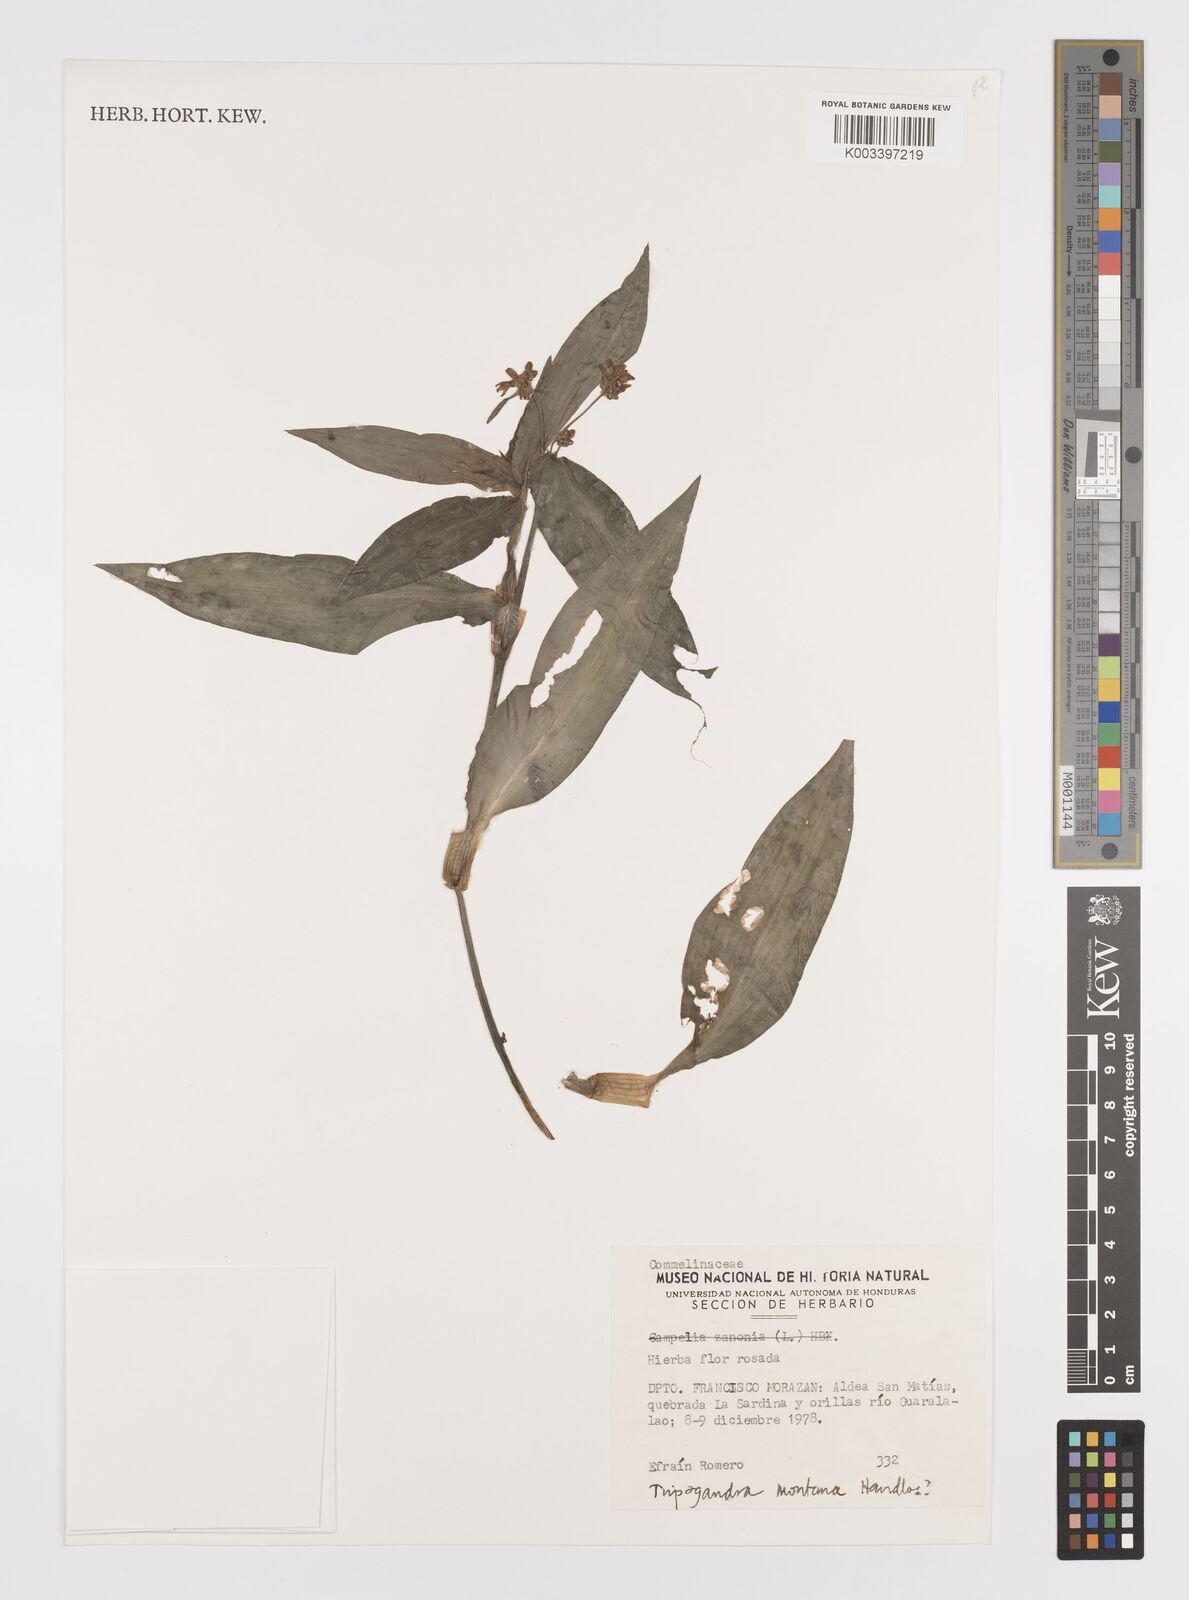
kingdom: Plantae
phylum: Tracheophyta
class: Liliopsida
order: Commelinales
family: Commelinaceae
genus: Callisia
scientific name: Callisia diuretica
